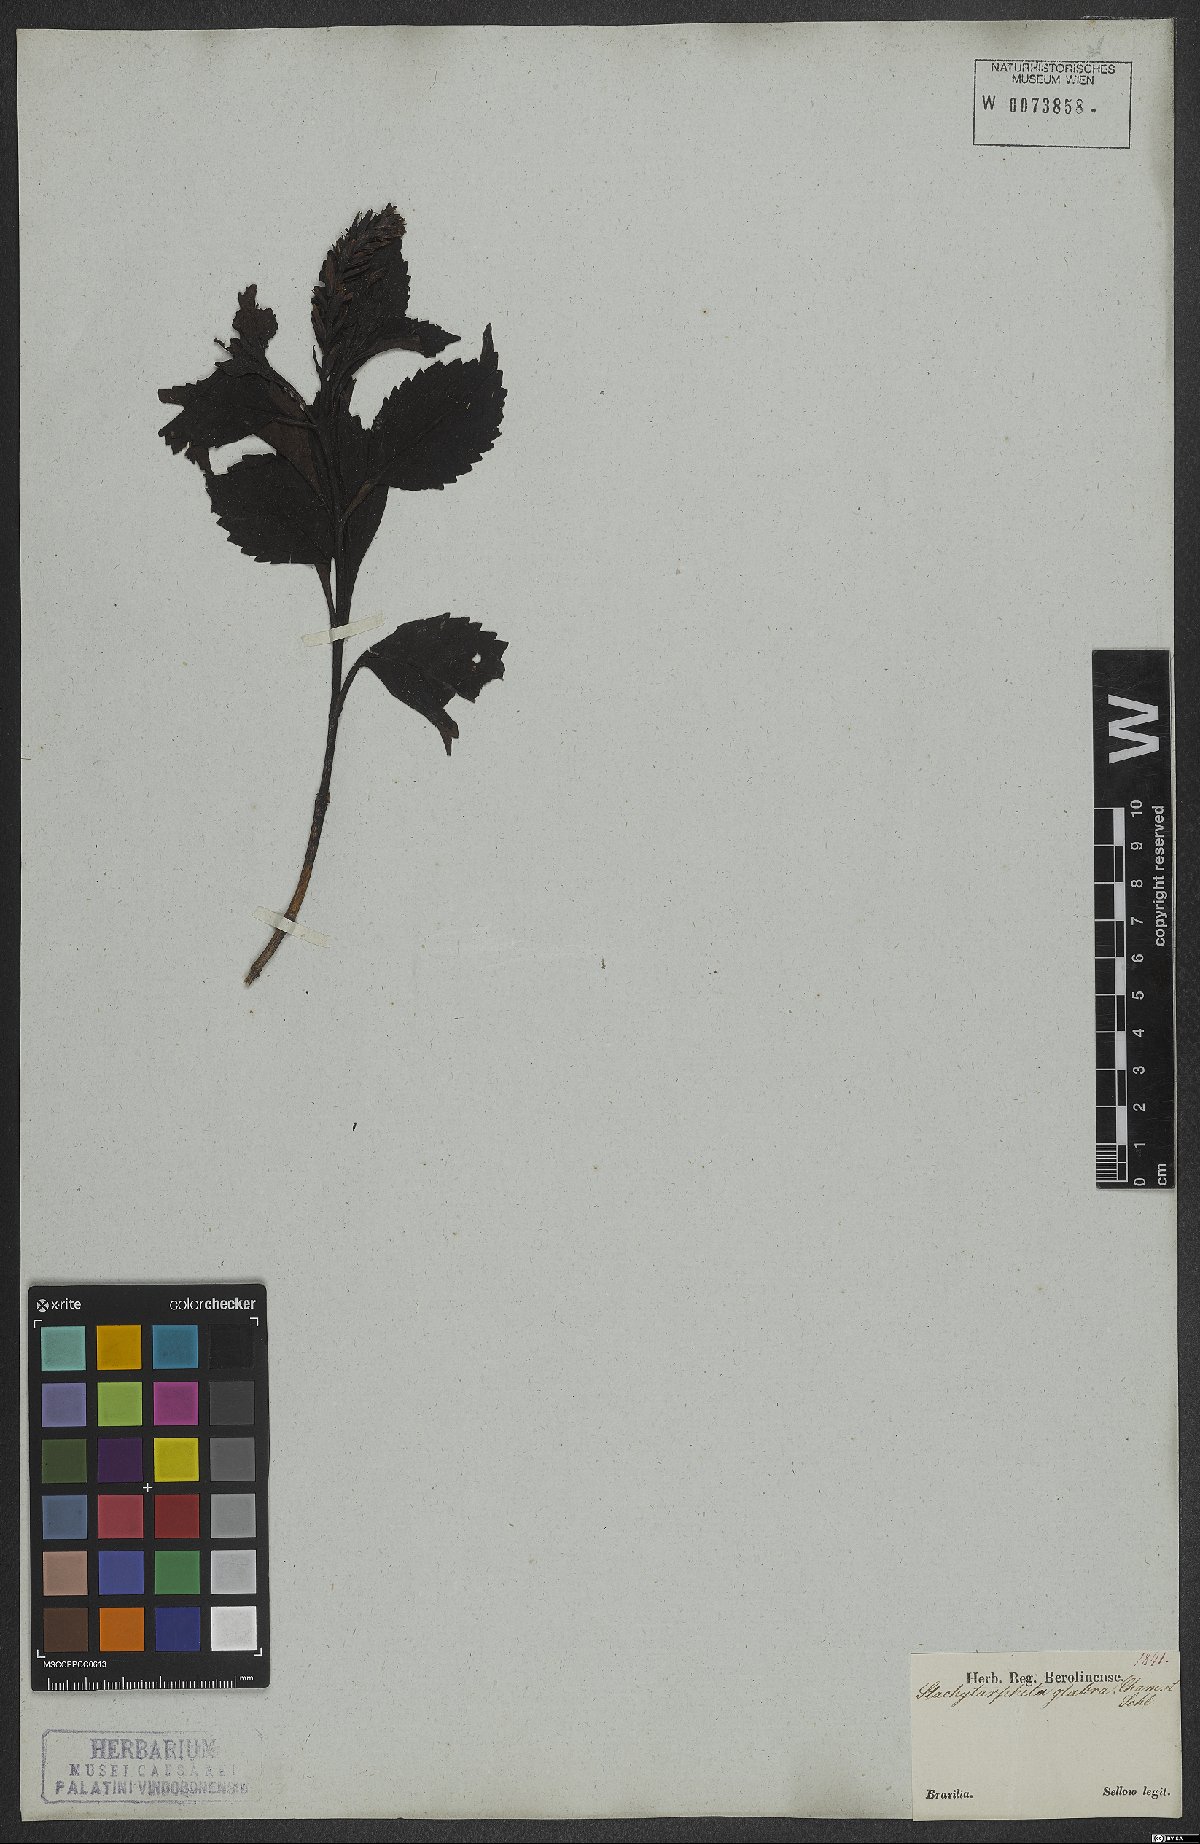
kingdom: Plantae
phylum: Tracheophyta
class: Magnoliopsida
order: Lamiales
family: Verbenaceae
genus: Stachytarpheta
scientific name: Stachytarpheta glabra
